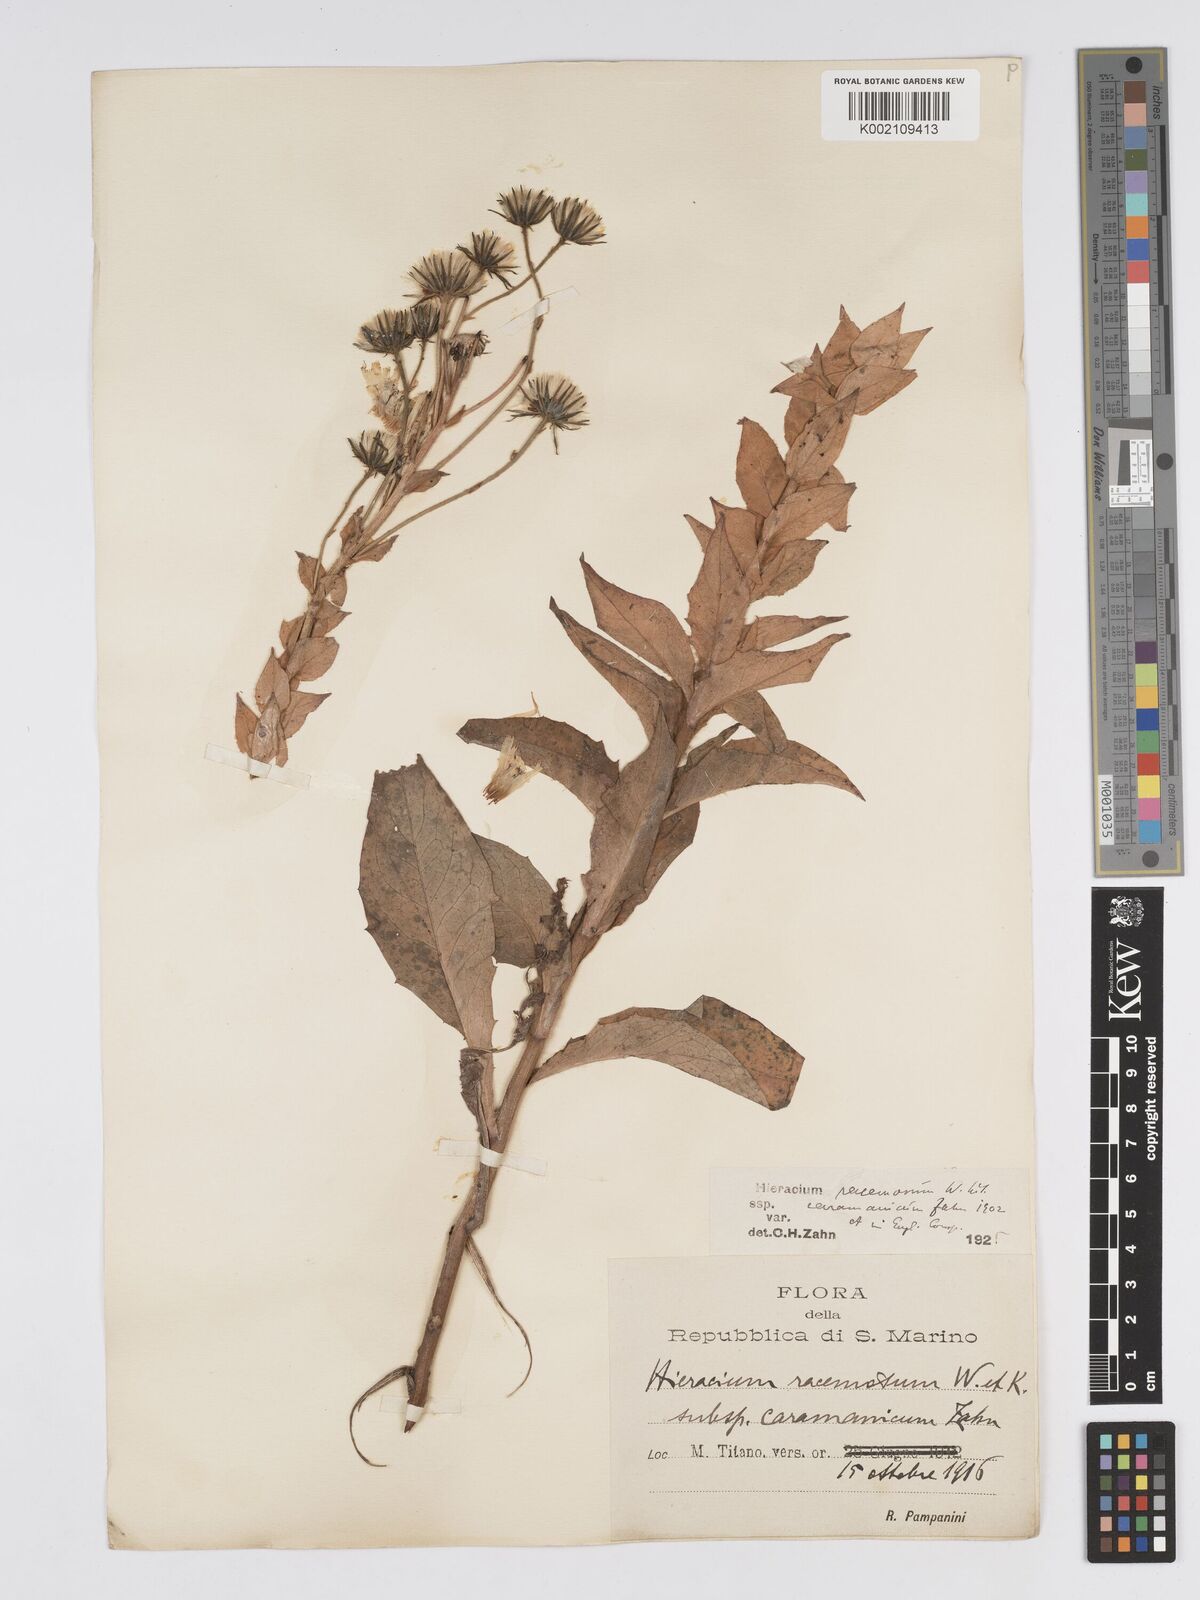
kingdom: Plantae
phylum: Tracheophyta
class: Magnoliopsida
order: Asterales
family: Asteraceae
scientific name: Asteraceae
